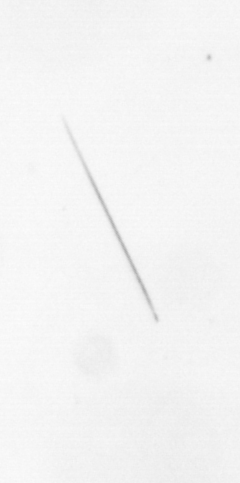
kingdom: Chromista
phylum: Ochrophyta
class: Bacillariophyceae
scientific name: Bacillariophyceae
